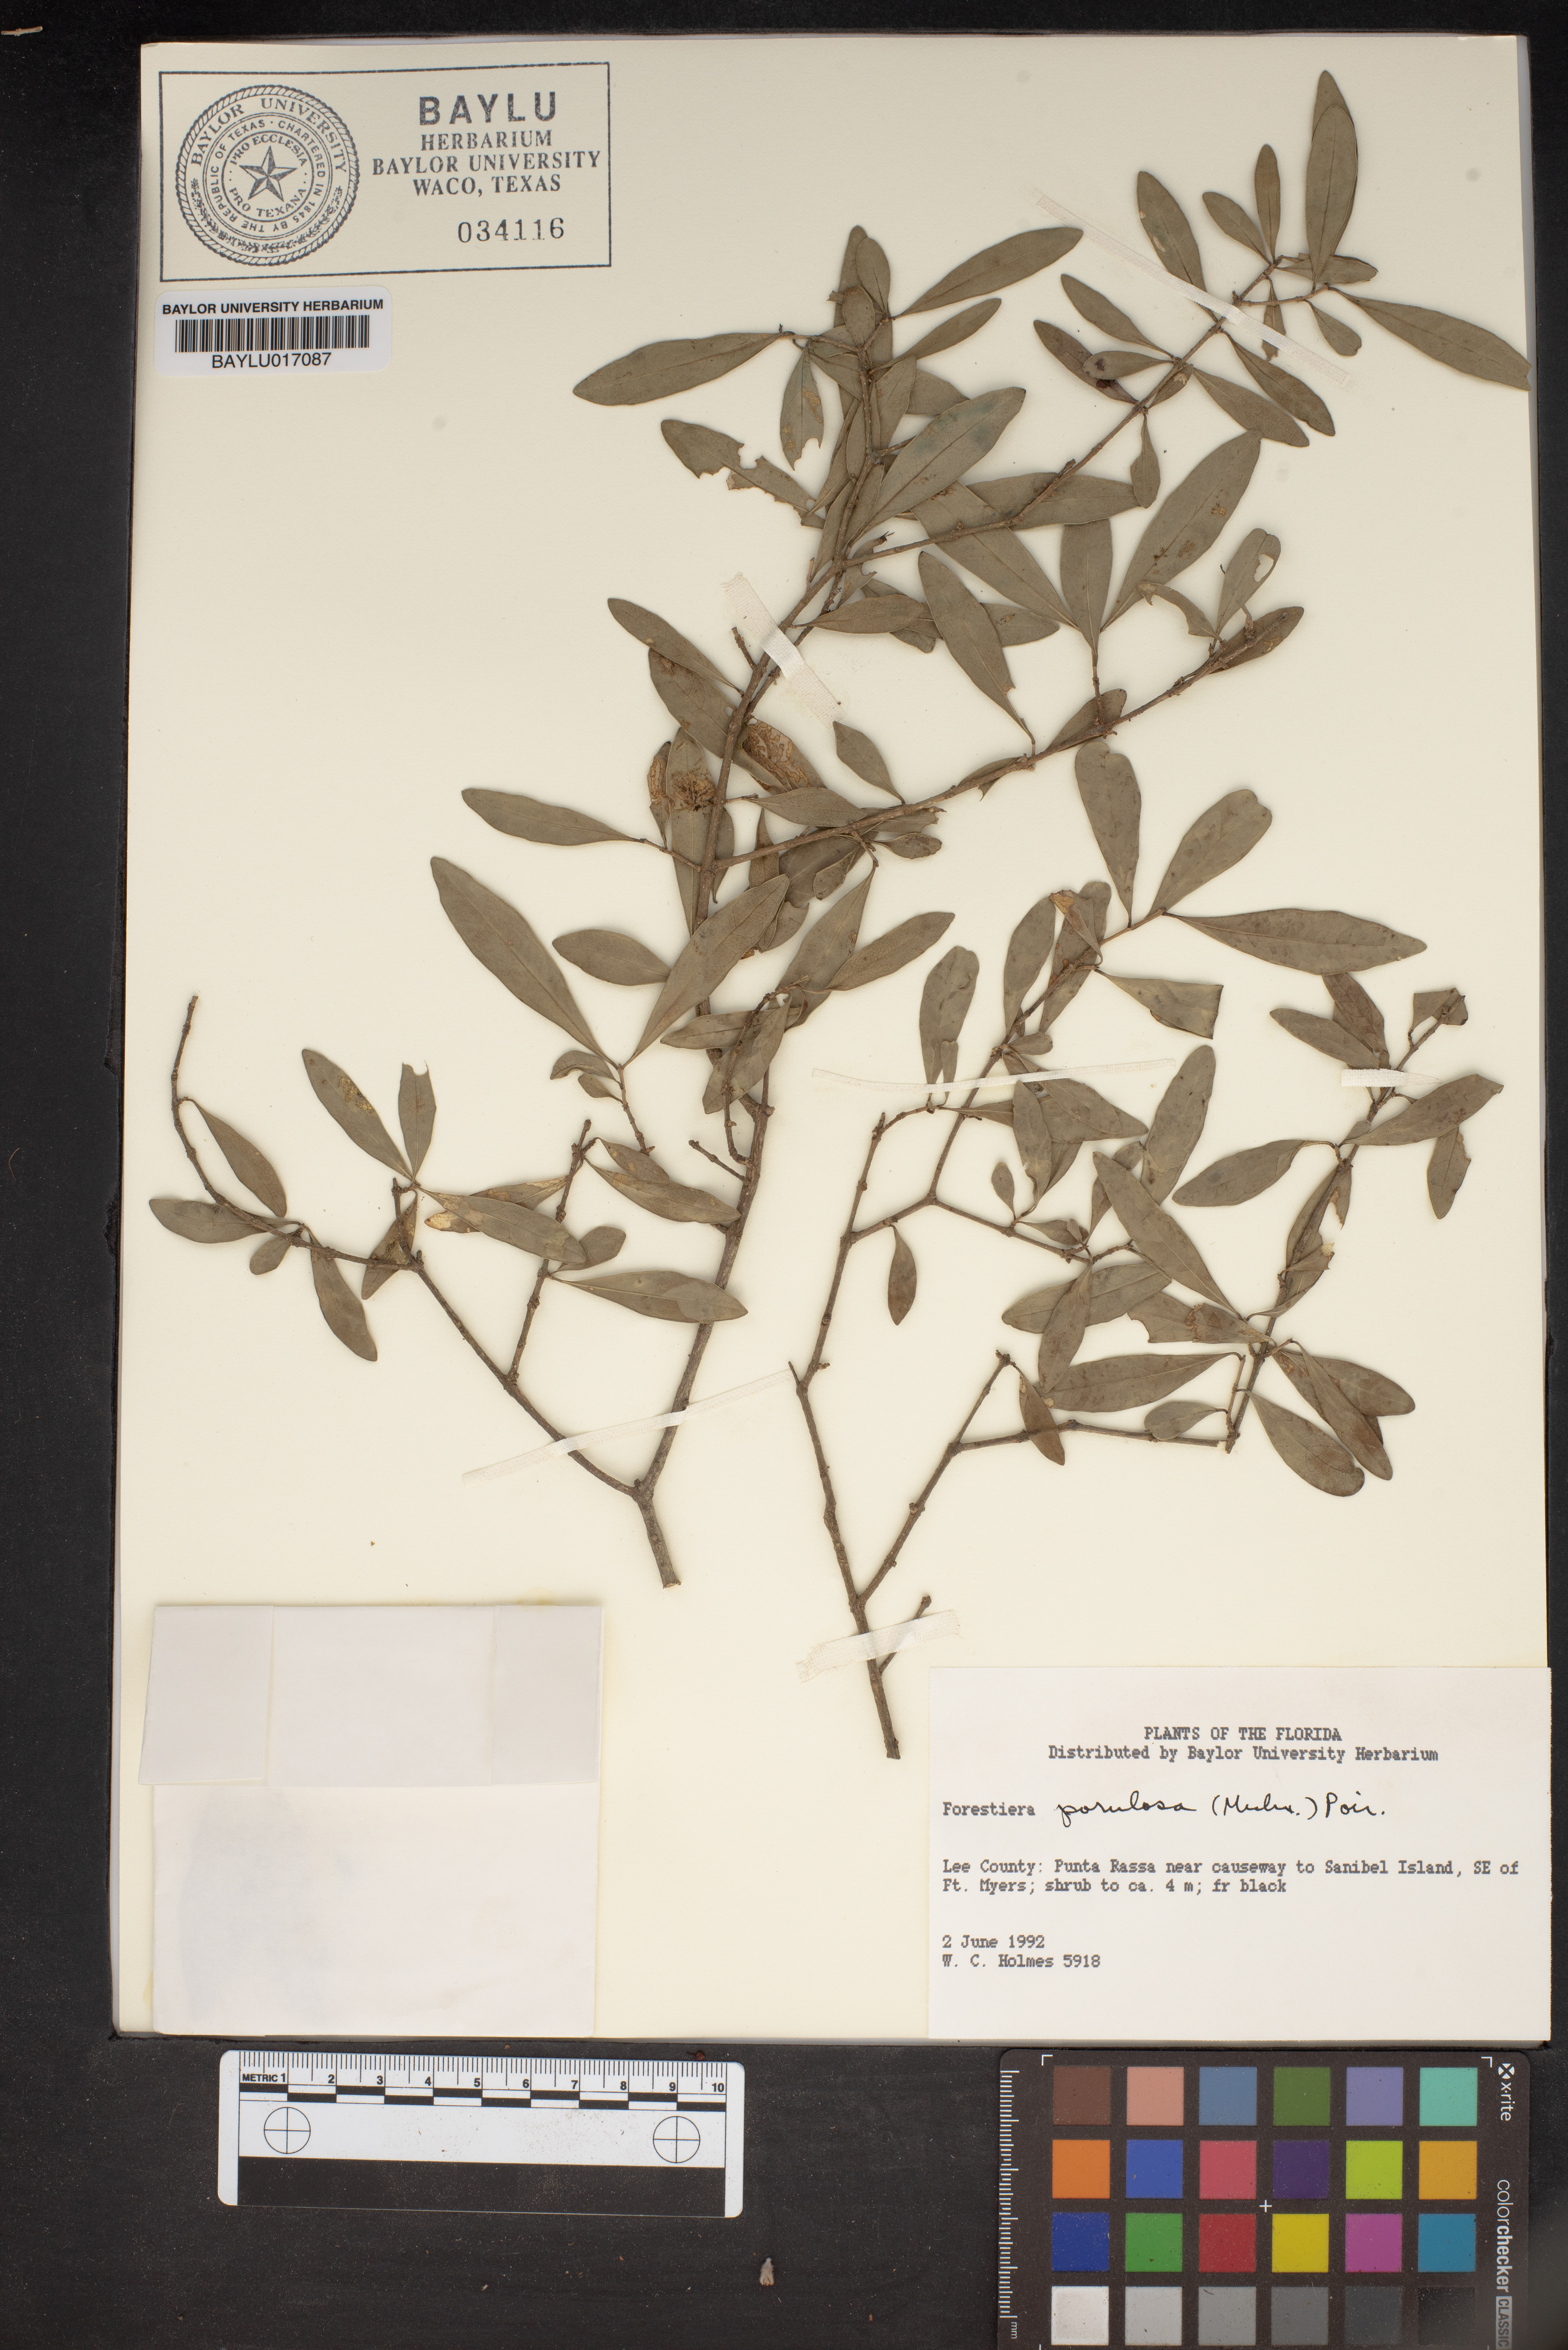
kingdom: Plantae
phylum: Tracheophyta
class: Magnoliopsida
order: Lamiales
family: Oleaceae
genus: Forestiera
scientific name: Forestiera segregata
